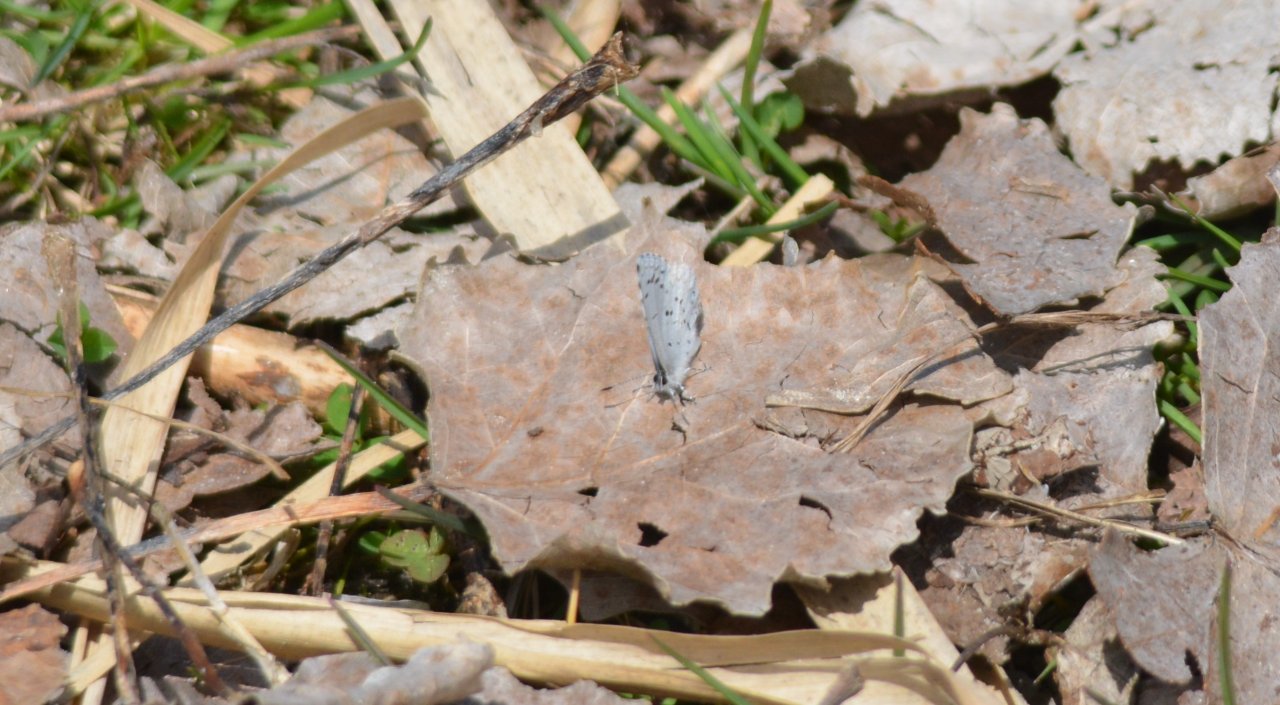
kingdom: Animalia
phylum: Arthropoda
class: Insecta
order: Lepidoptera
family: Lycaenidae
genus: Celastrina
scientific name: Celastrina
